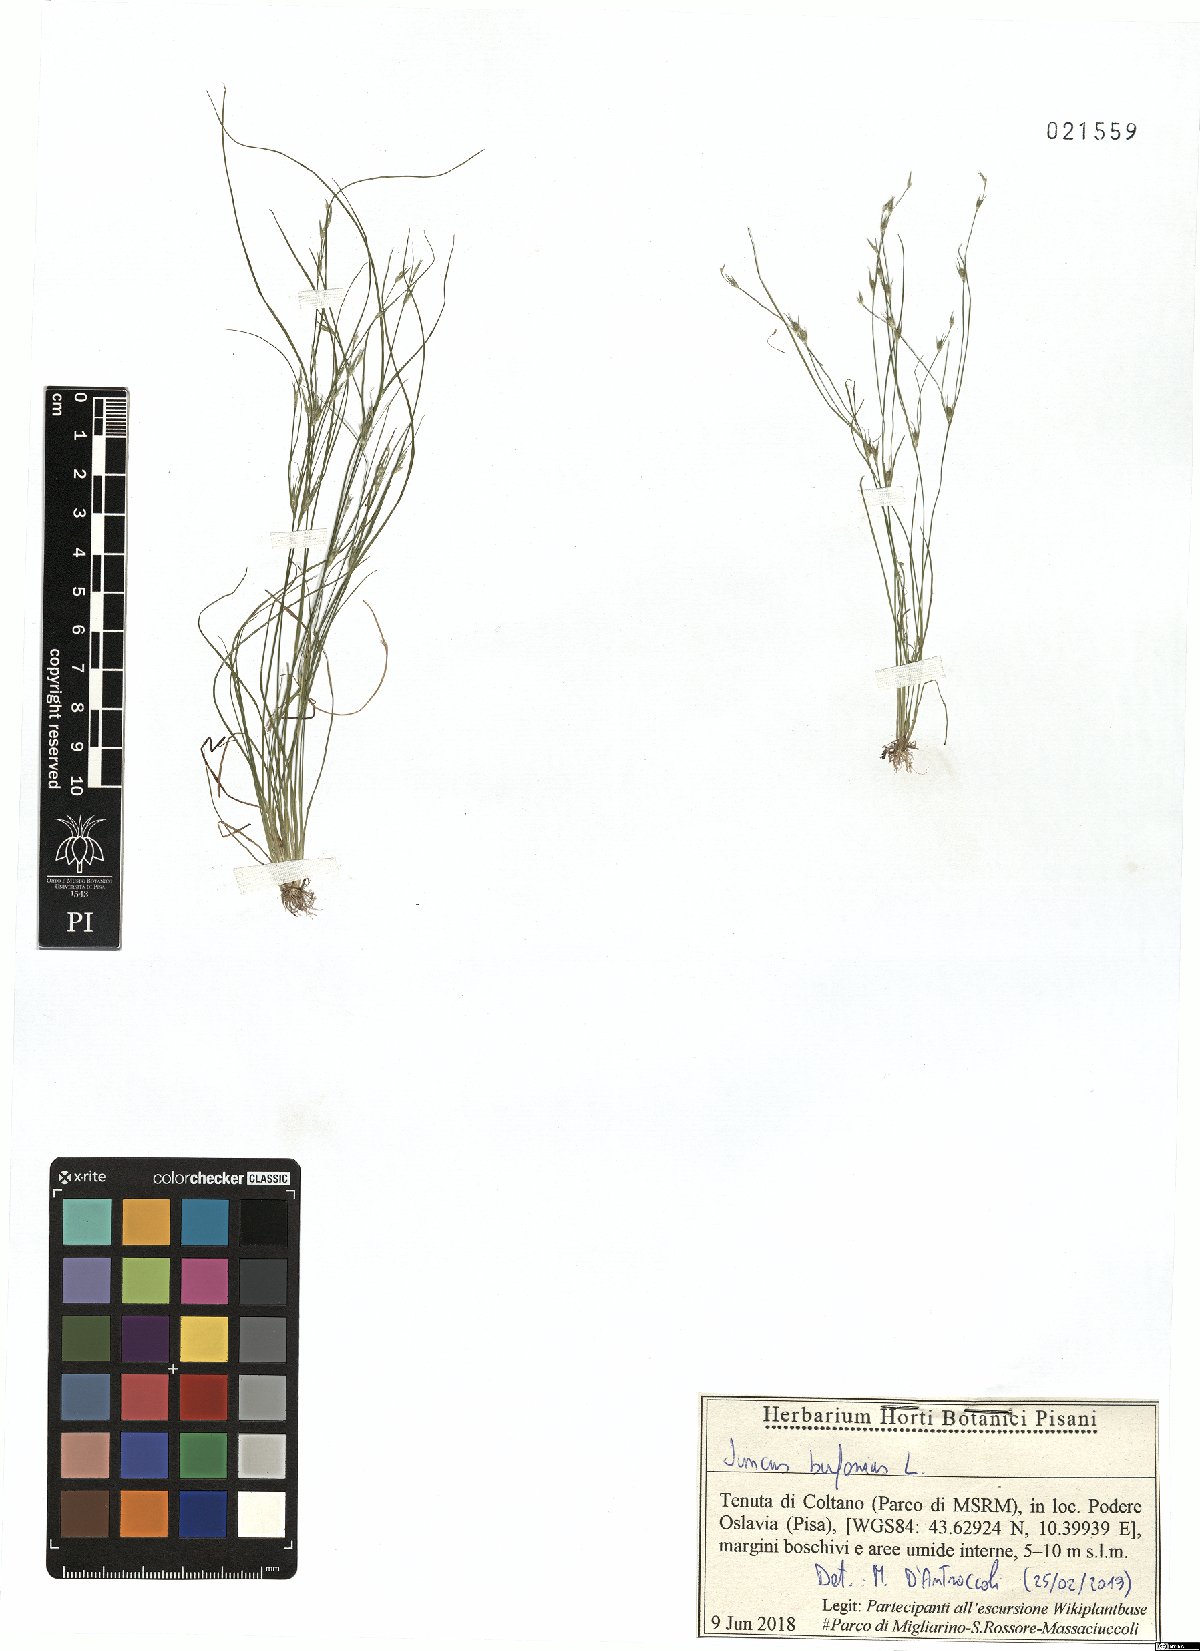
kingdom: Plantae
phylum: Tracheophyta
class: Liliopsida
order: Poales
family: Juncaceae
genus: Juncus
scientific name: Juncus bufonius
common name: Toad rush
